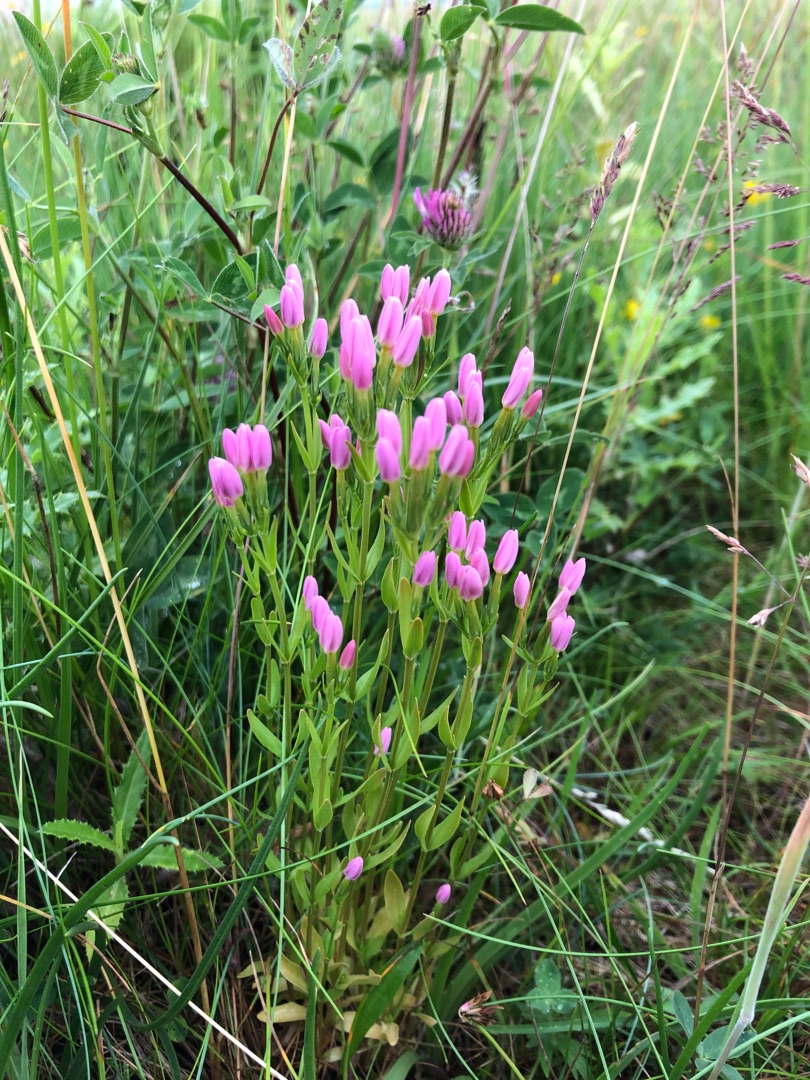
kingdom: Plantae
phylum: Tracheophyta
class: Magnoliopsida
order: Gentianales
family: Gentianaceae
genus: Centaurium
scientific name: Centaurium erythraea
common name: Mark-tusindgylden
